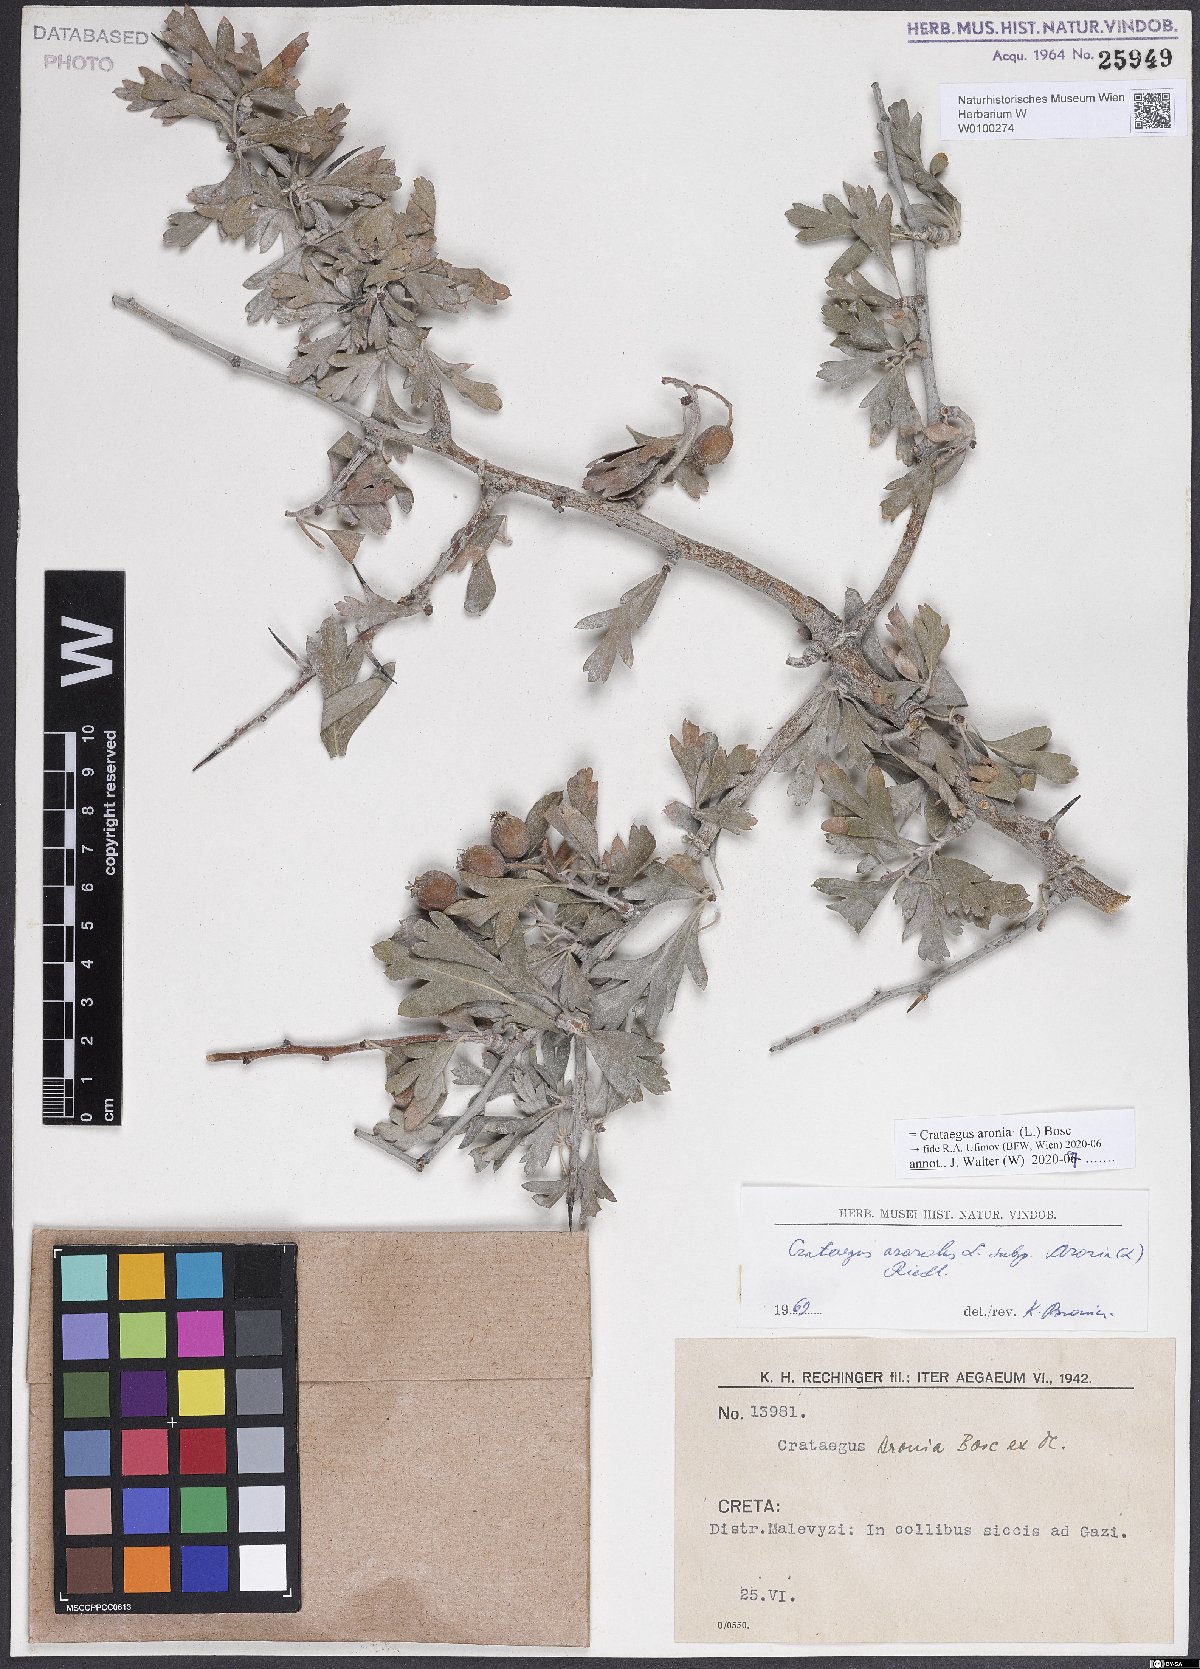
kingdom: Plantae
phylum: Tracheophyta
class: Magnoliopsida
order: Rosales
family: Rosaceae
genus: Crataegus
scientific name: Crataegus azarolus
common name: Azarole
